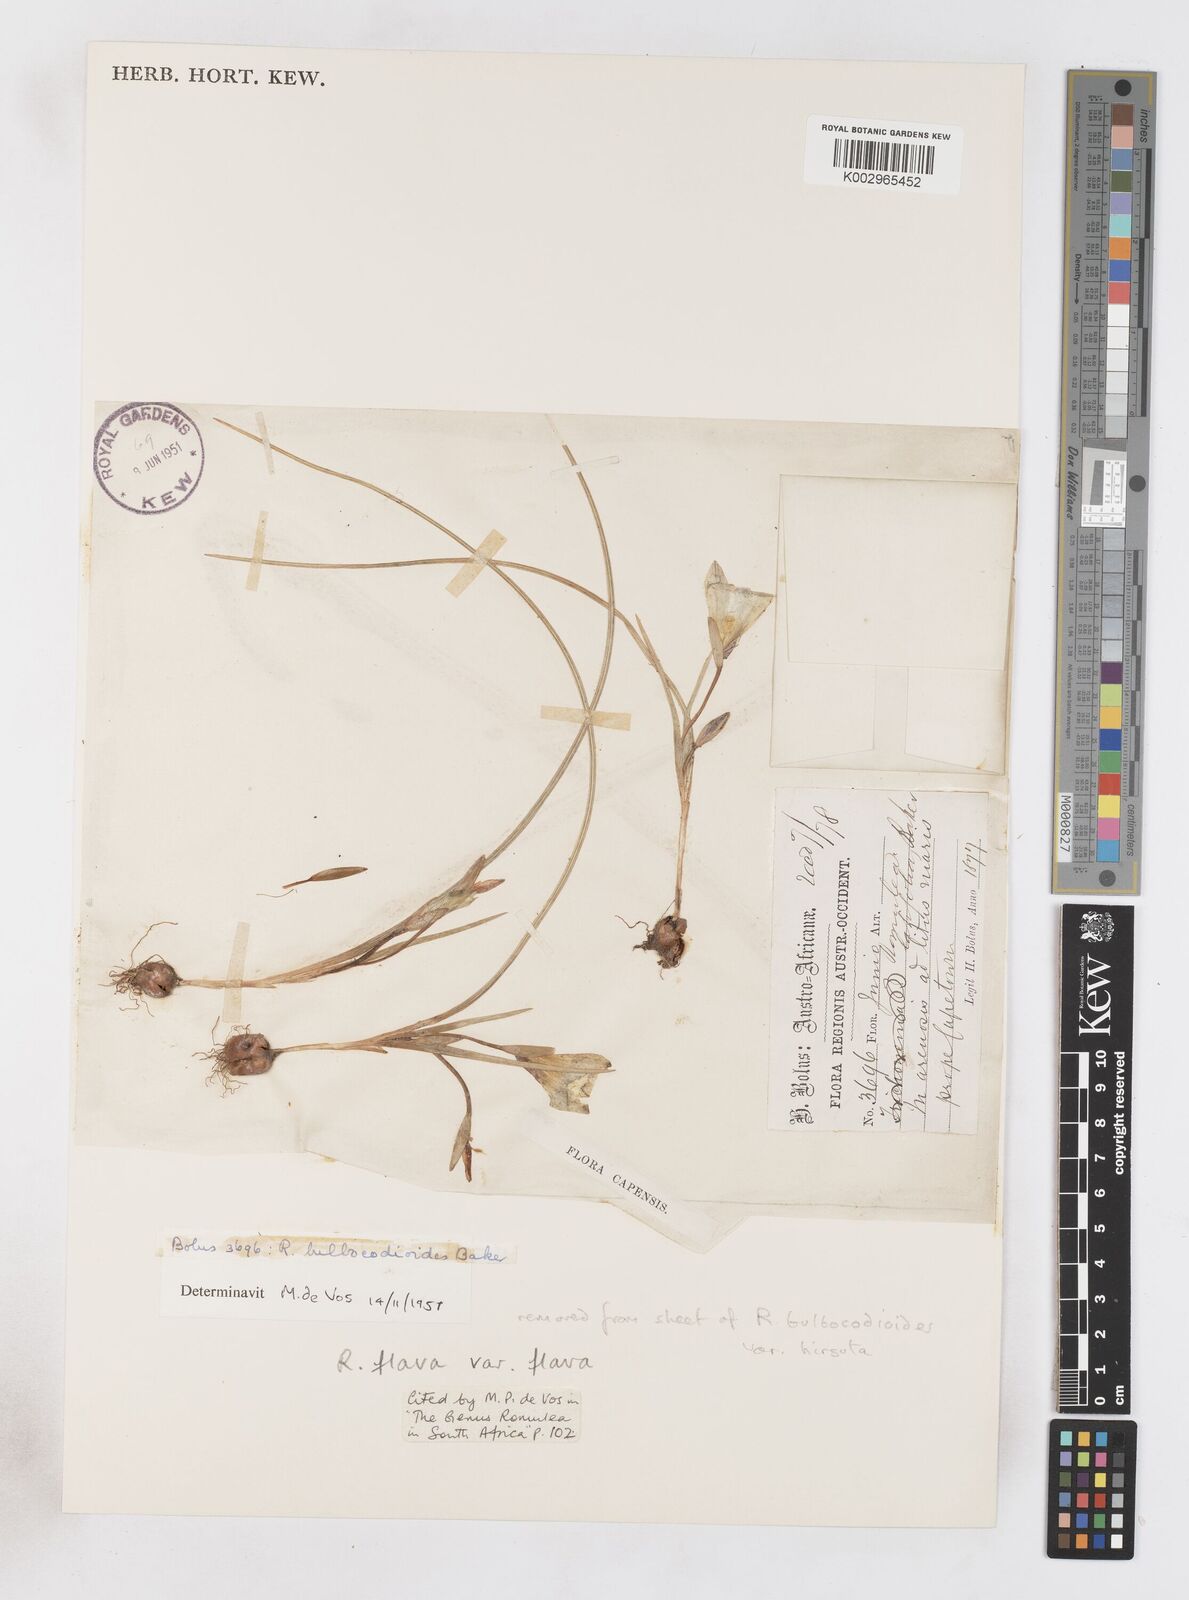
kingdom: Plantae
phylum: Tracheophyta
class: Liliopsida
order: Asparagales
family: Iridaceae
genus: Romulea
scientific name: Romulea flava
